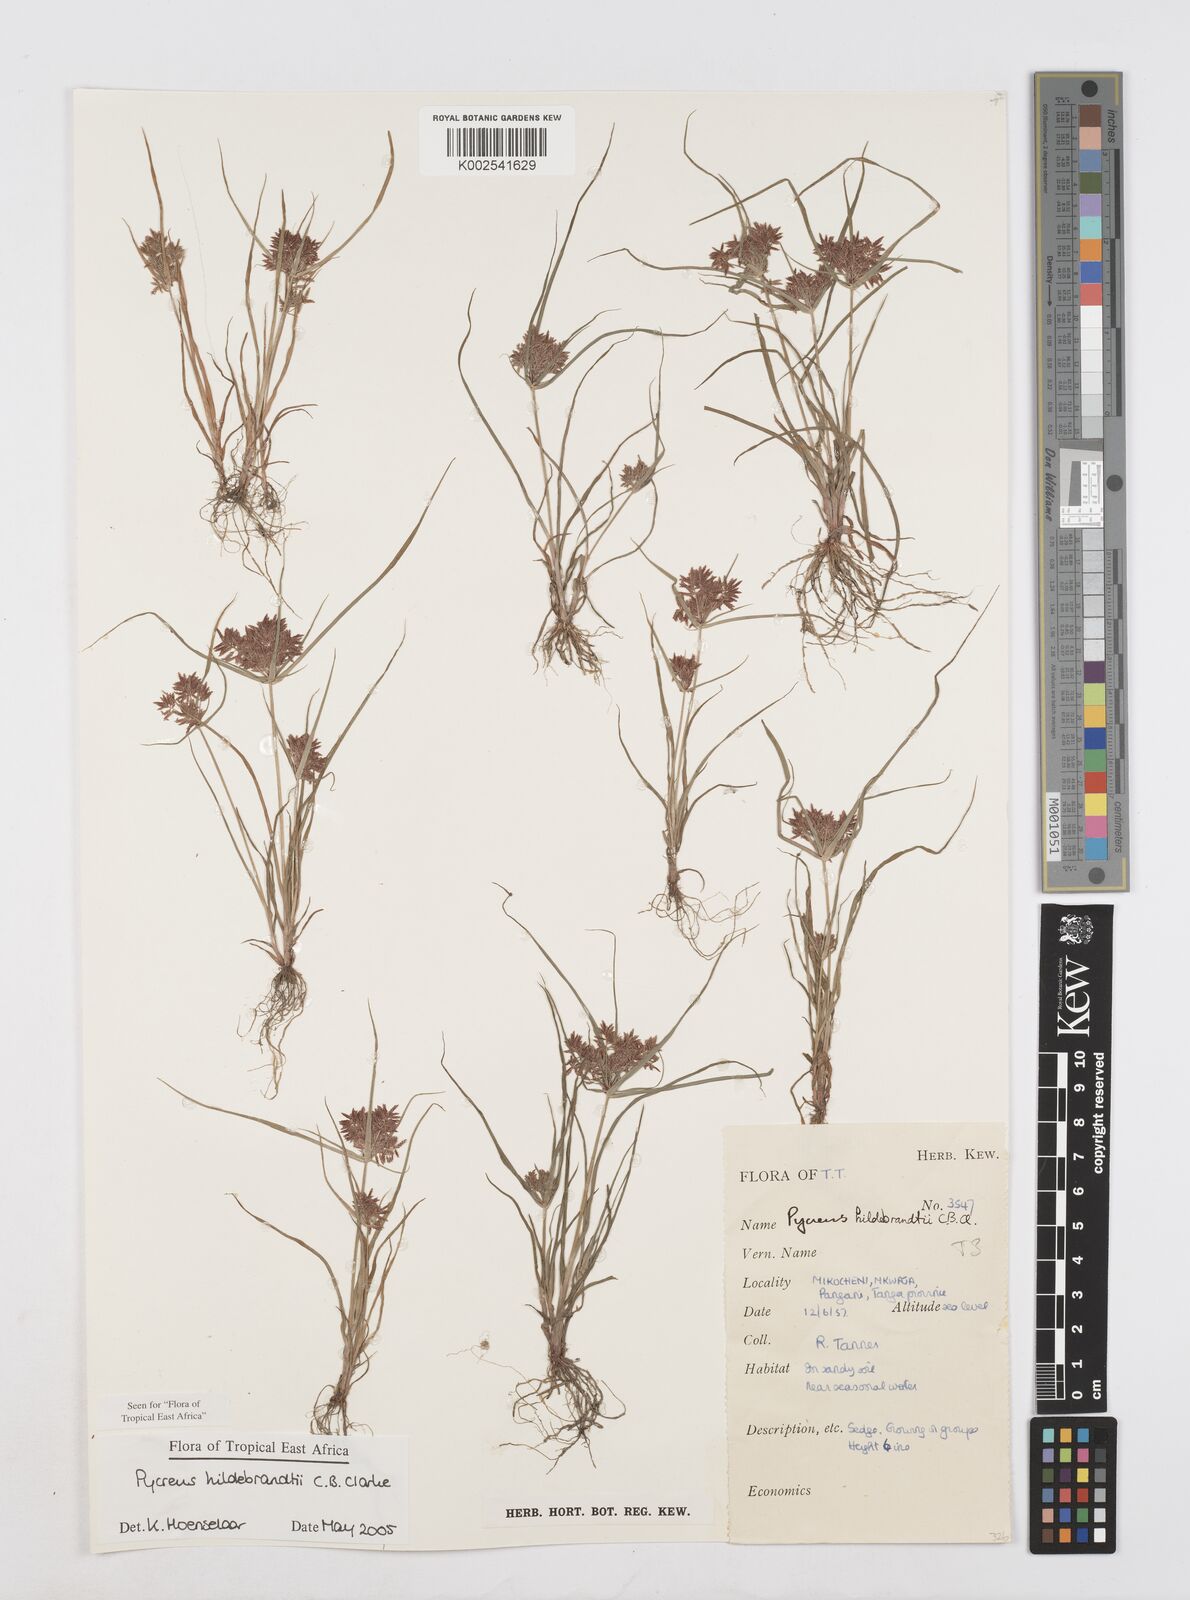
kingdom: Plantae
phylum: Tracheophyta
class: Liliopsida
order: Poales
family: Cyperaceae
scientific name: Cyperaceae
